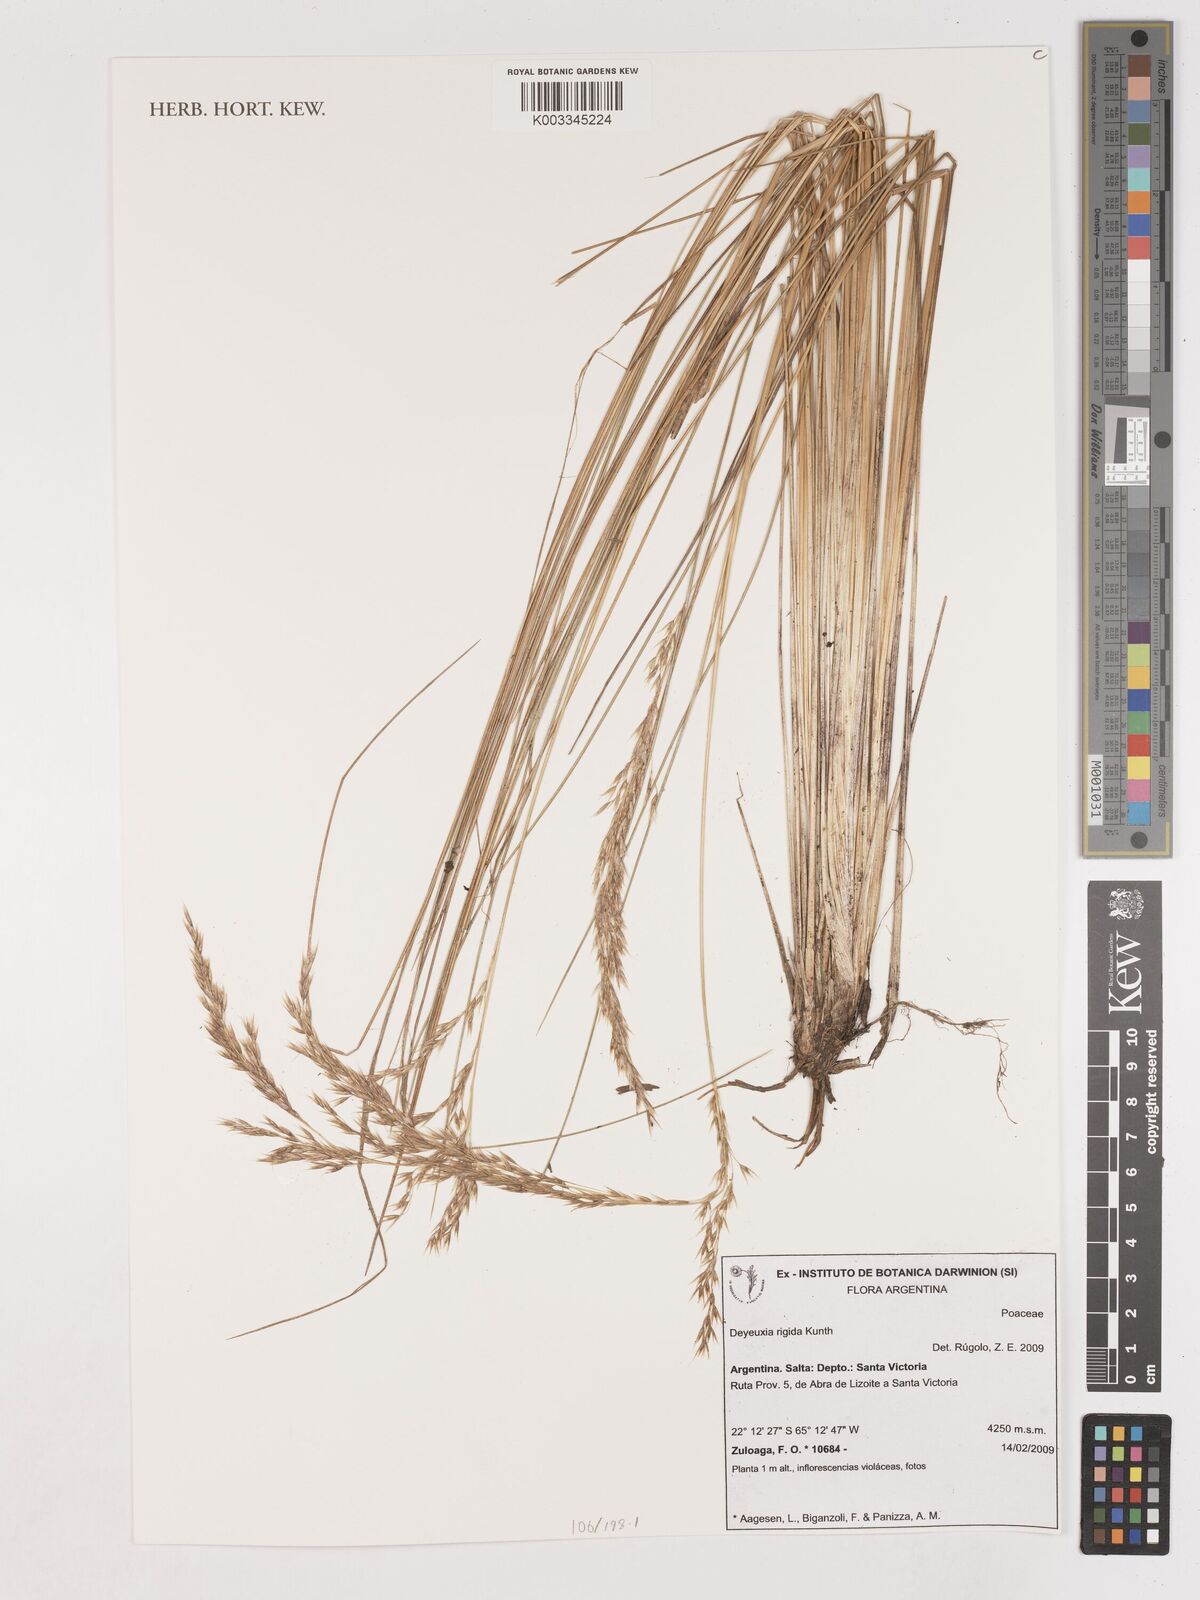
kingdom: Plantae
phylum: Tracheophyta
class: Liliopsida
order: Poales
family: Poaceae
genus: Cinnagrostis
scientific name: Cinnagrostis rigida
